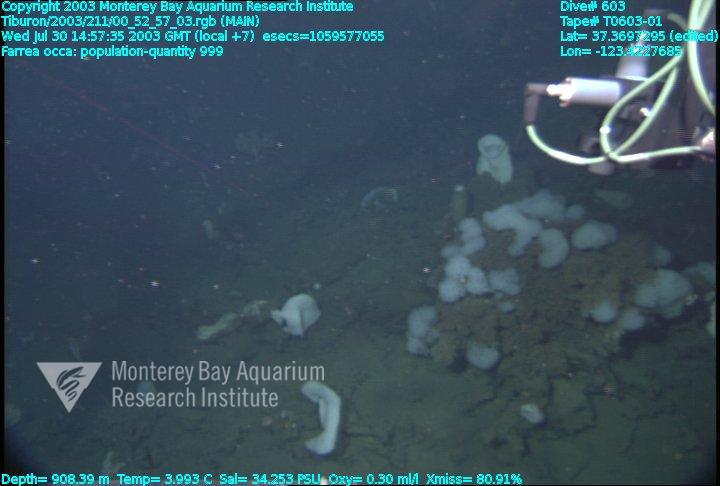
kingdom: Animalia
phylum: Porifera
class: Hexactinellida
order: Sceptrulophora
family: Farreidae
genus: Farrea
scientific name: Farrea occa
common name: Reversed glass sponge
